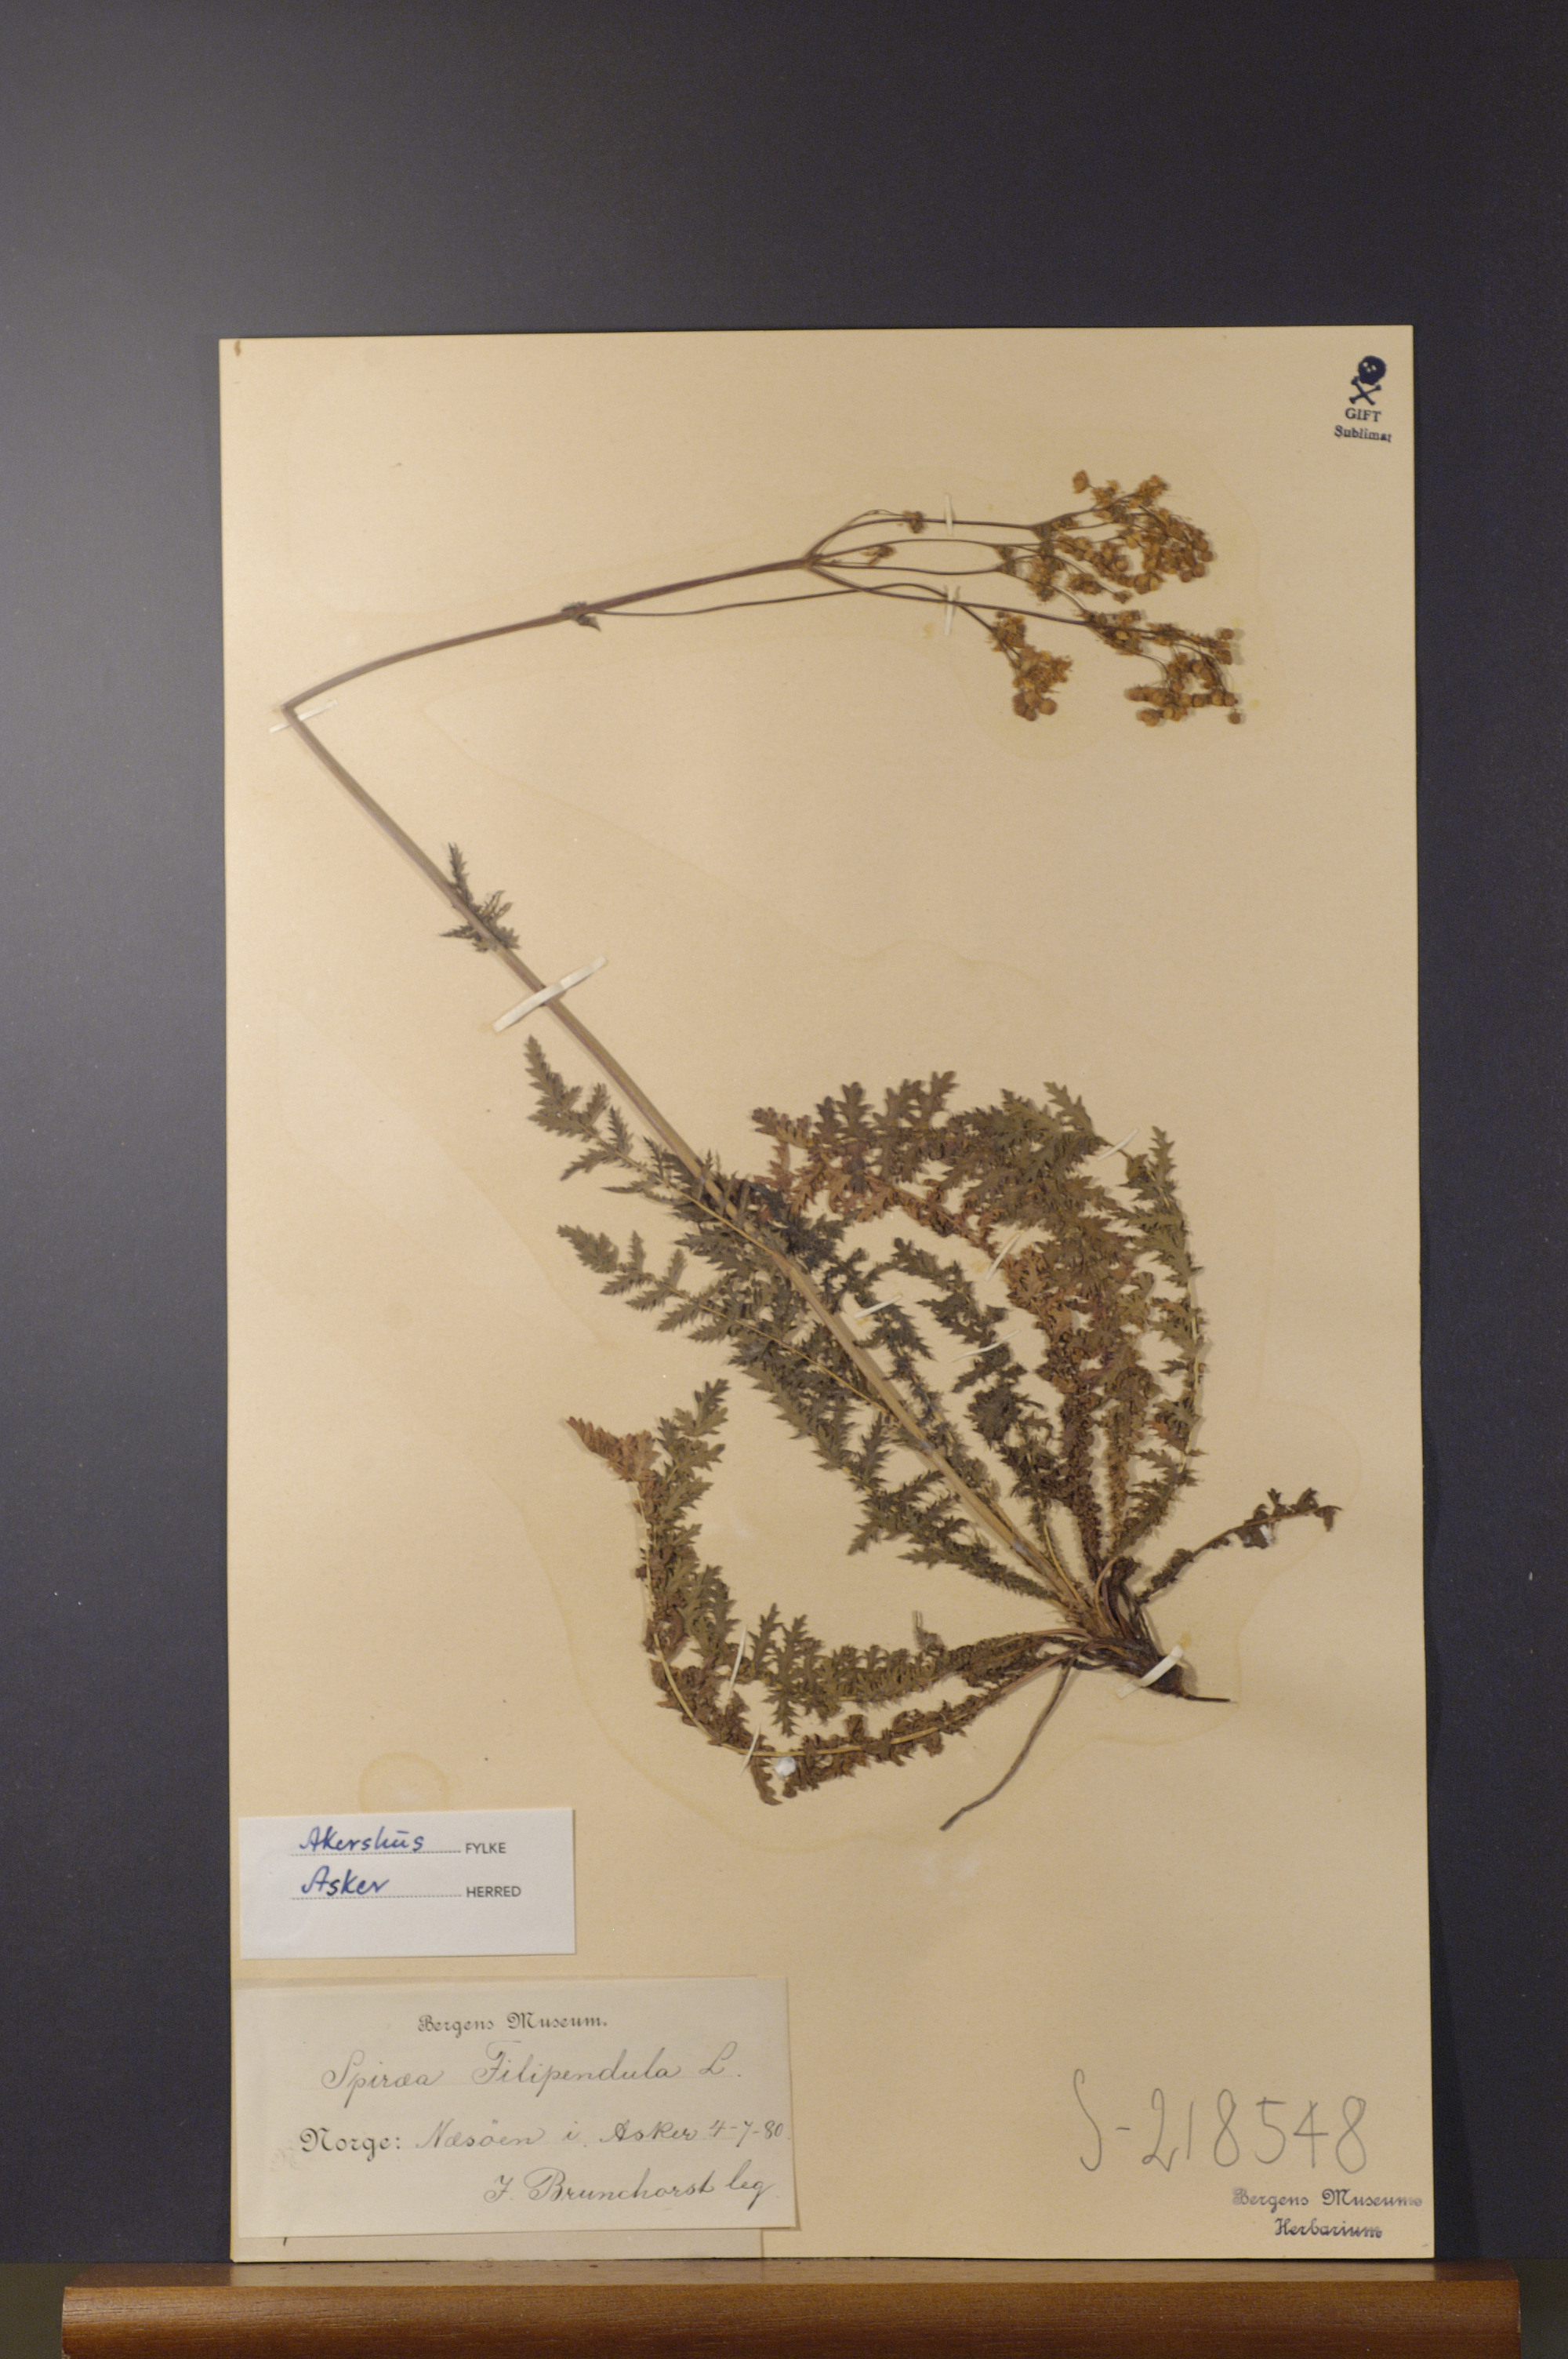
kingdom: Plantae
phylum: Tracheophyta
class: Magnoliopsida
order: Rosales
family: Rosaceae
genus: Filipendula
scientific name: Filipendula vulgaris
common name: Dropwort
